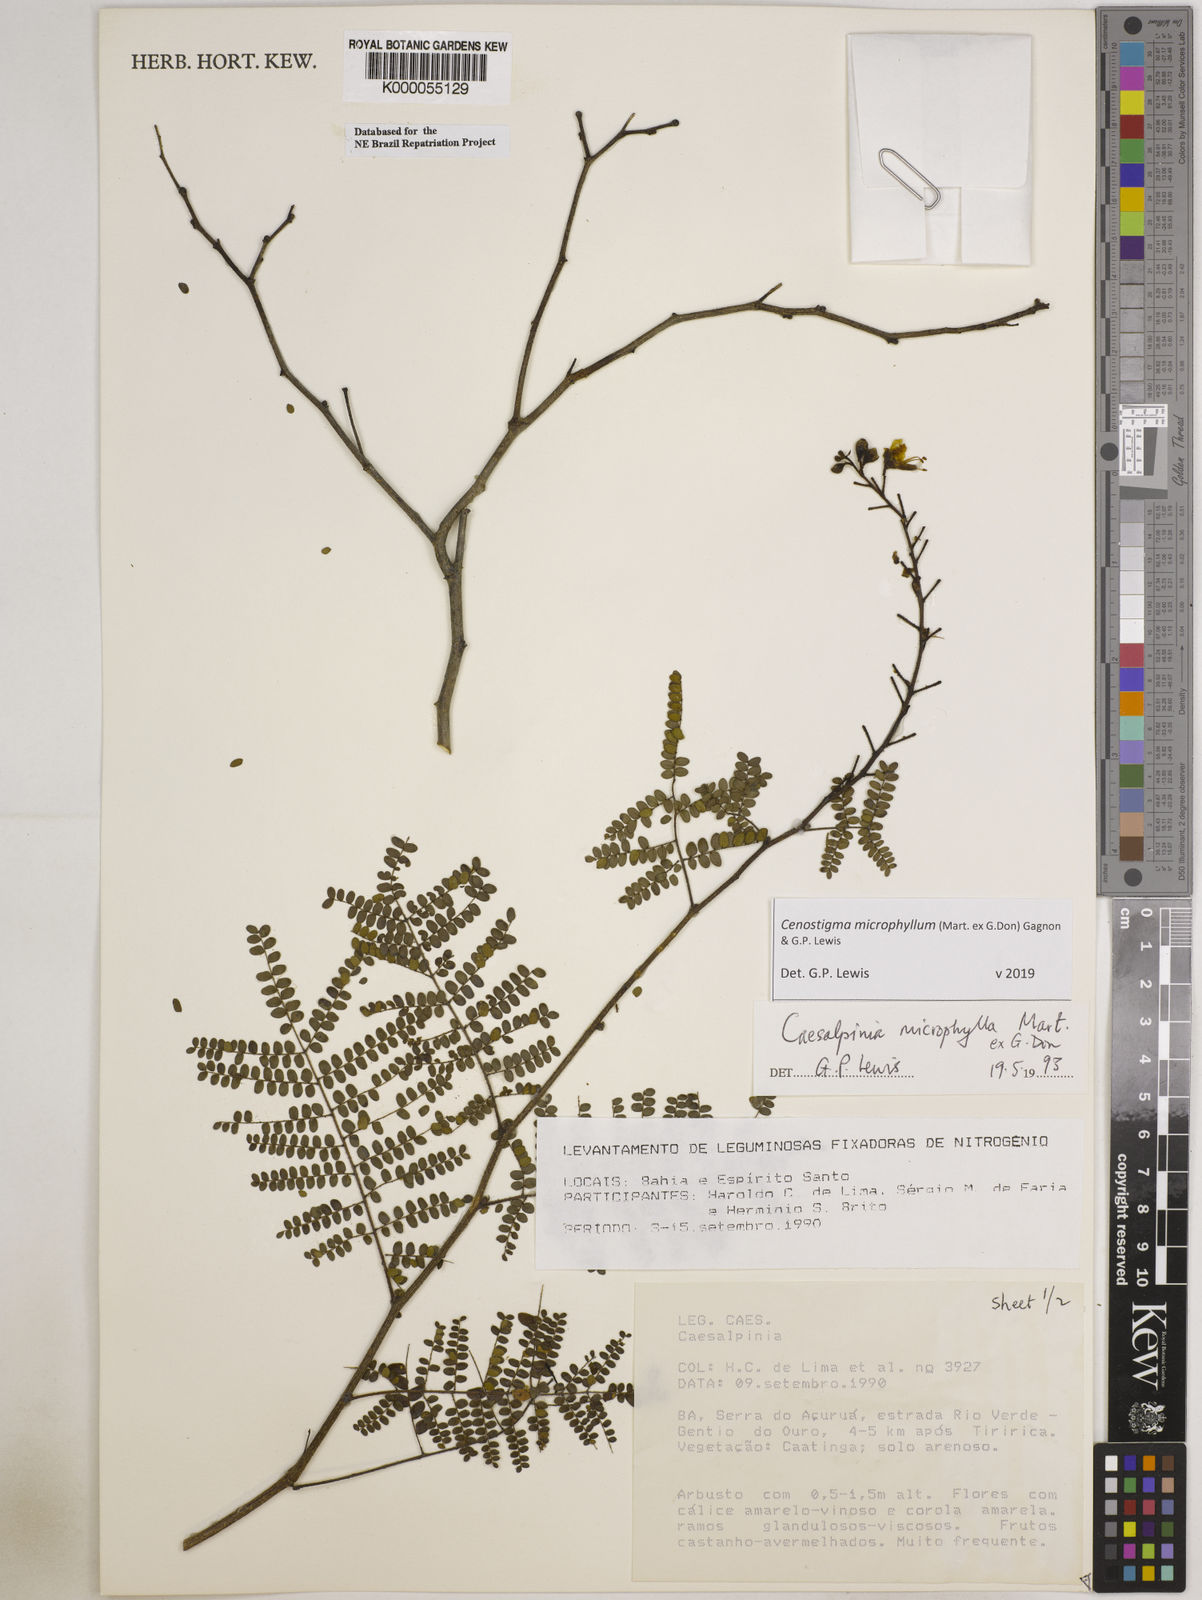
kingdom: Plantae
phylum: Tracheophyta
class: Magnoliopsida
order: Fabales
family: Fabaceae
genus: Cenostigma
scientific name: Cenostigma microphyllum
